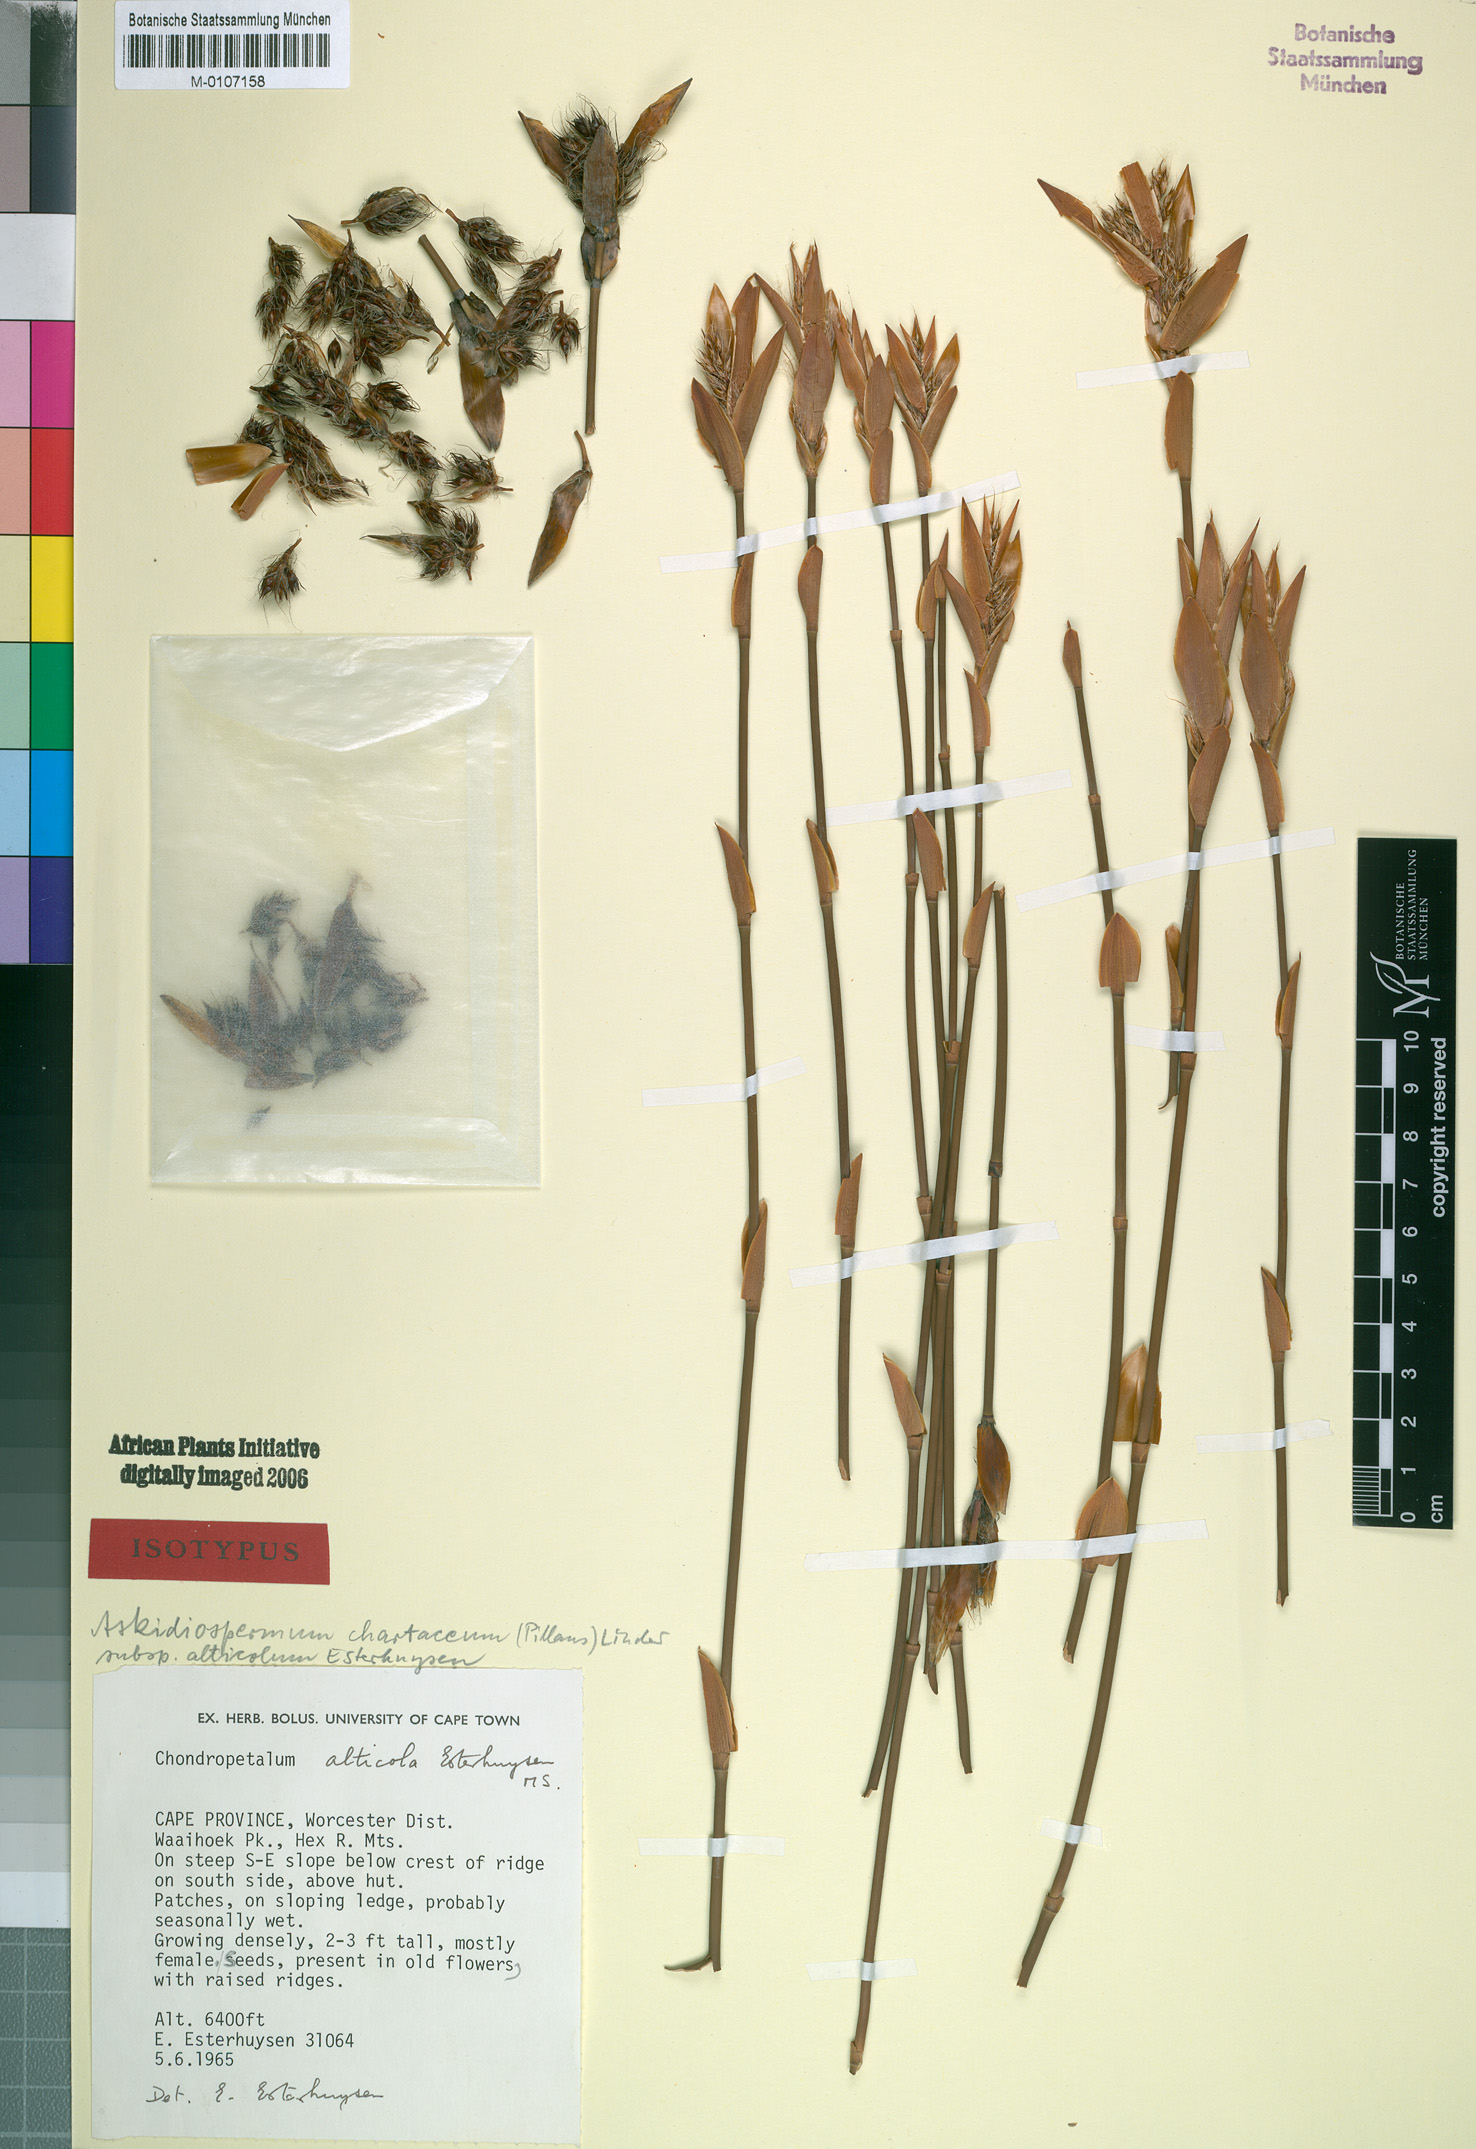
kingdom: Plantae
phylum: Tracheophyta
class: Liliopsida
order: Poales
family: Restionaceae
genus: Askidiosperma
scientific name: Askidiosperma alticola
